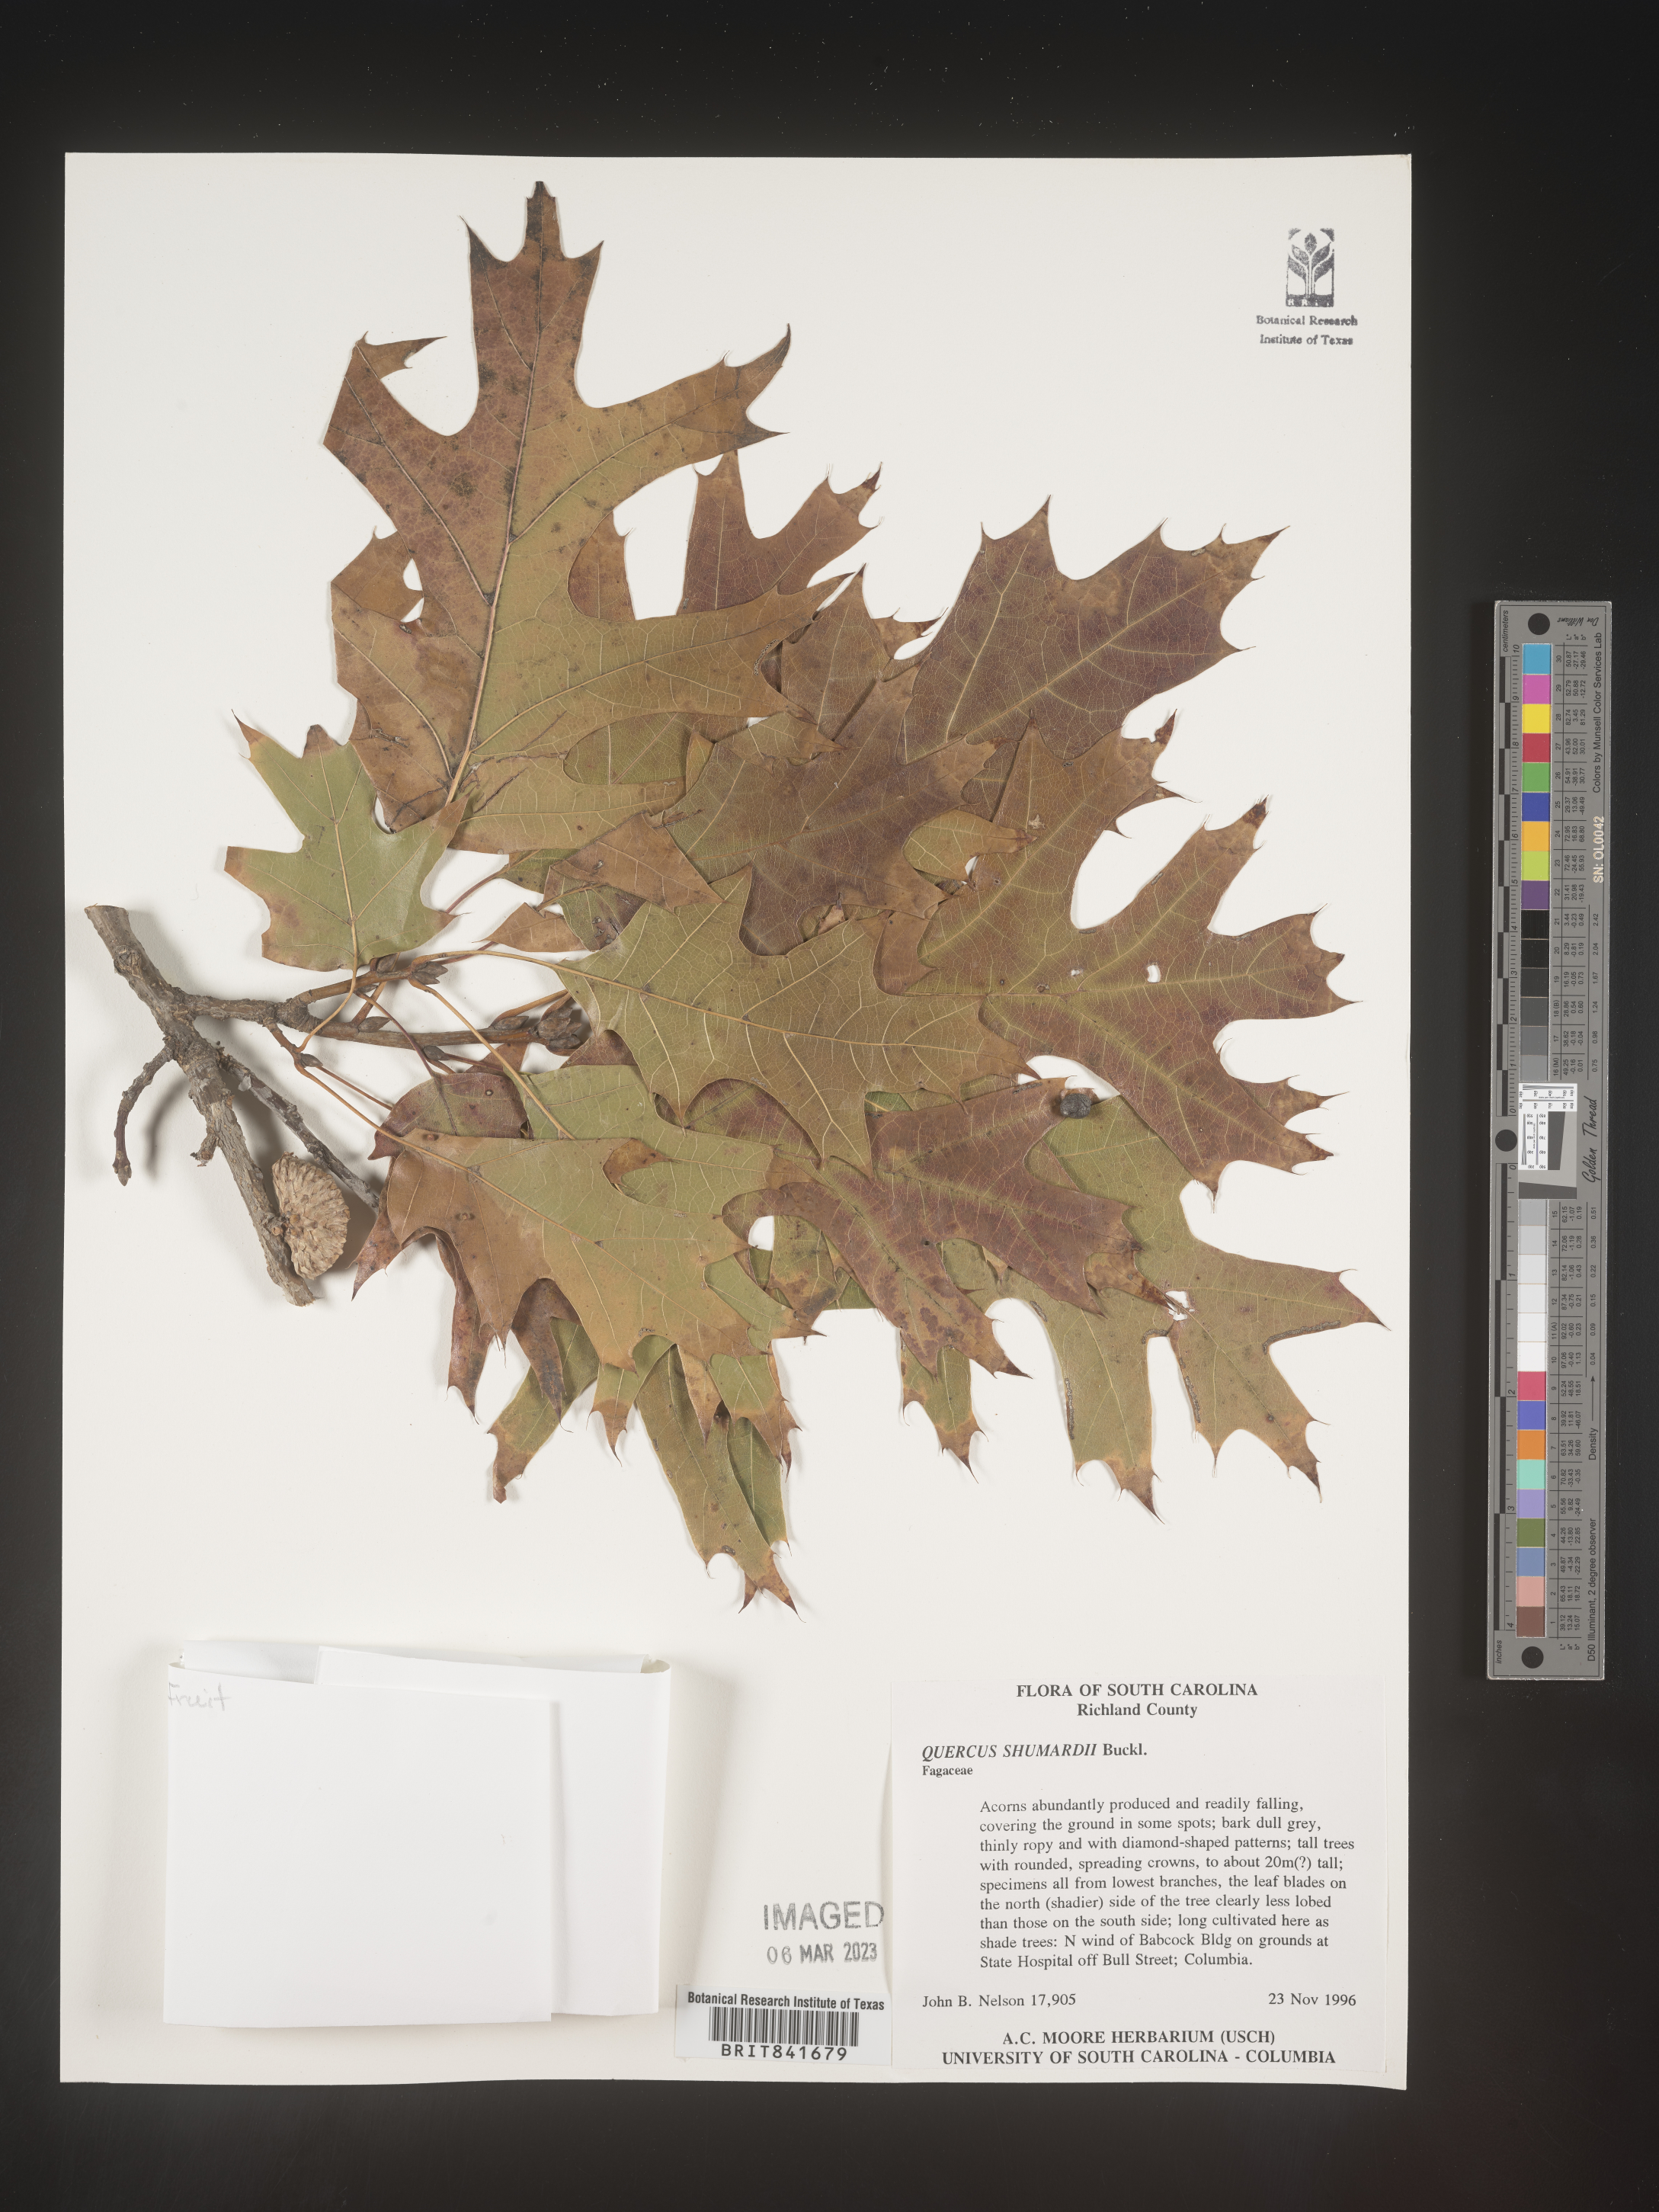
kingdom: Plantae
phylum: Tracheophyta
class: Magnoliopsida
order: Fagales
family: Fagaceae
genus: Quercus
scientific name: Quercus shumardii
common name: Shumard oak
